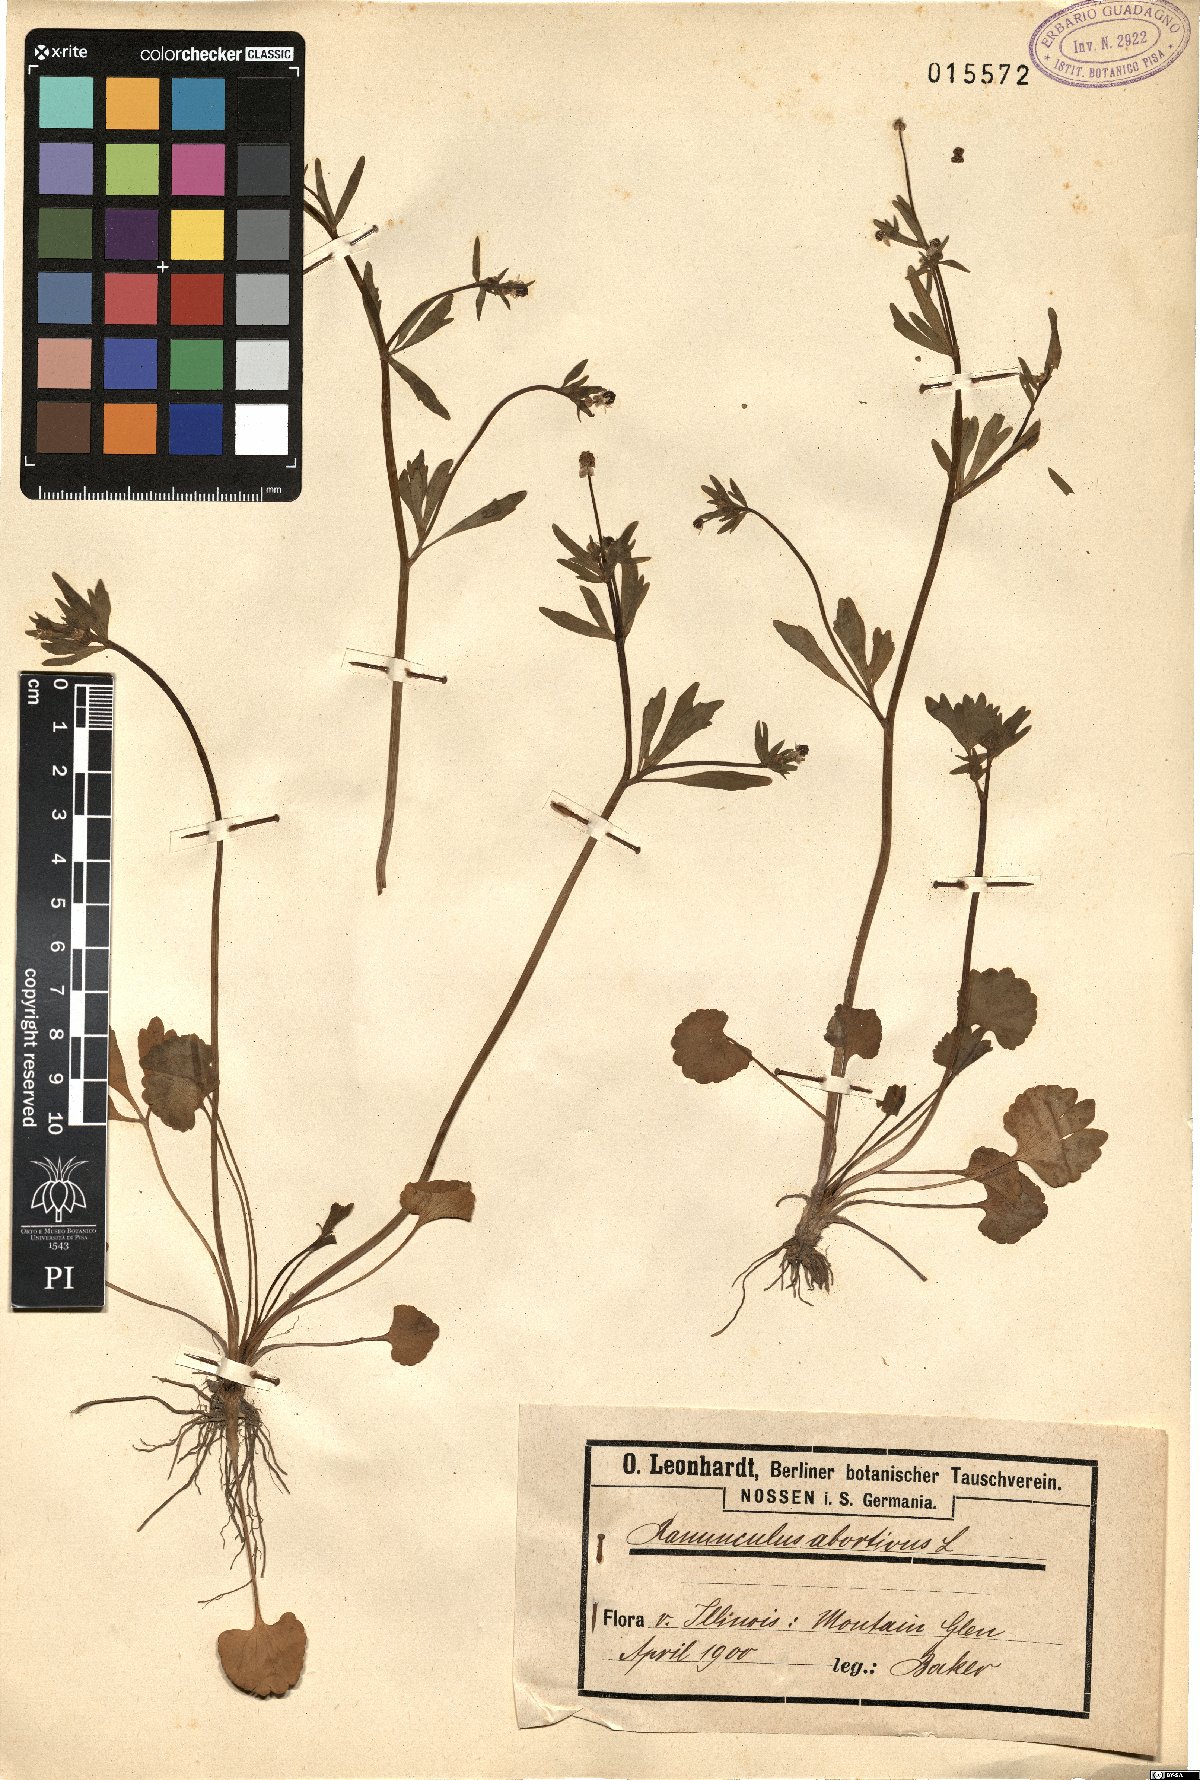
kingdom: Plantae
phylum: Tracheophyta
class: Magnoliopsida
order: Ranunculales
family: Ranunculaceae
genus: Ranunculus
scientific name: Ranunculus abortivus
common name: Early wood buttercup
